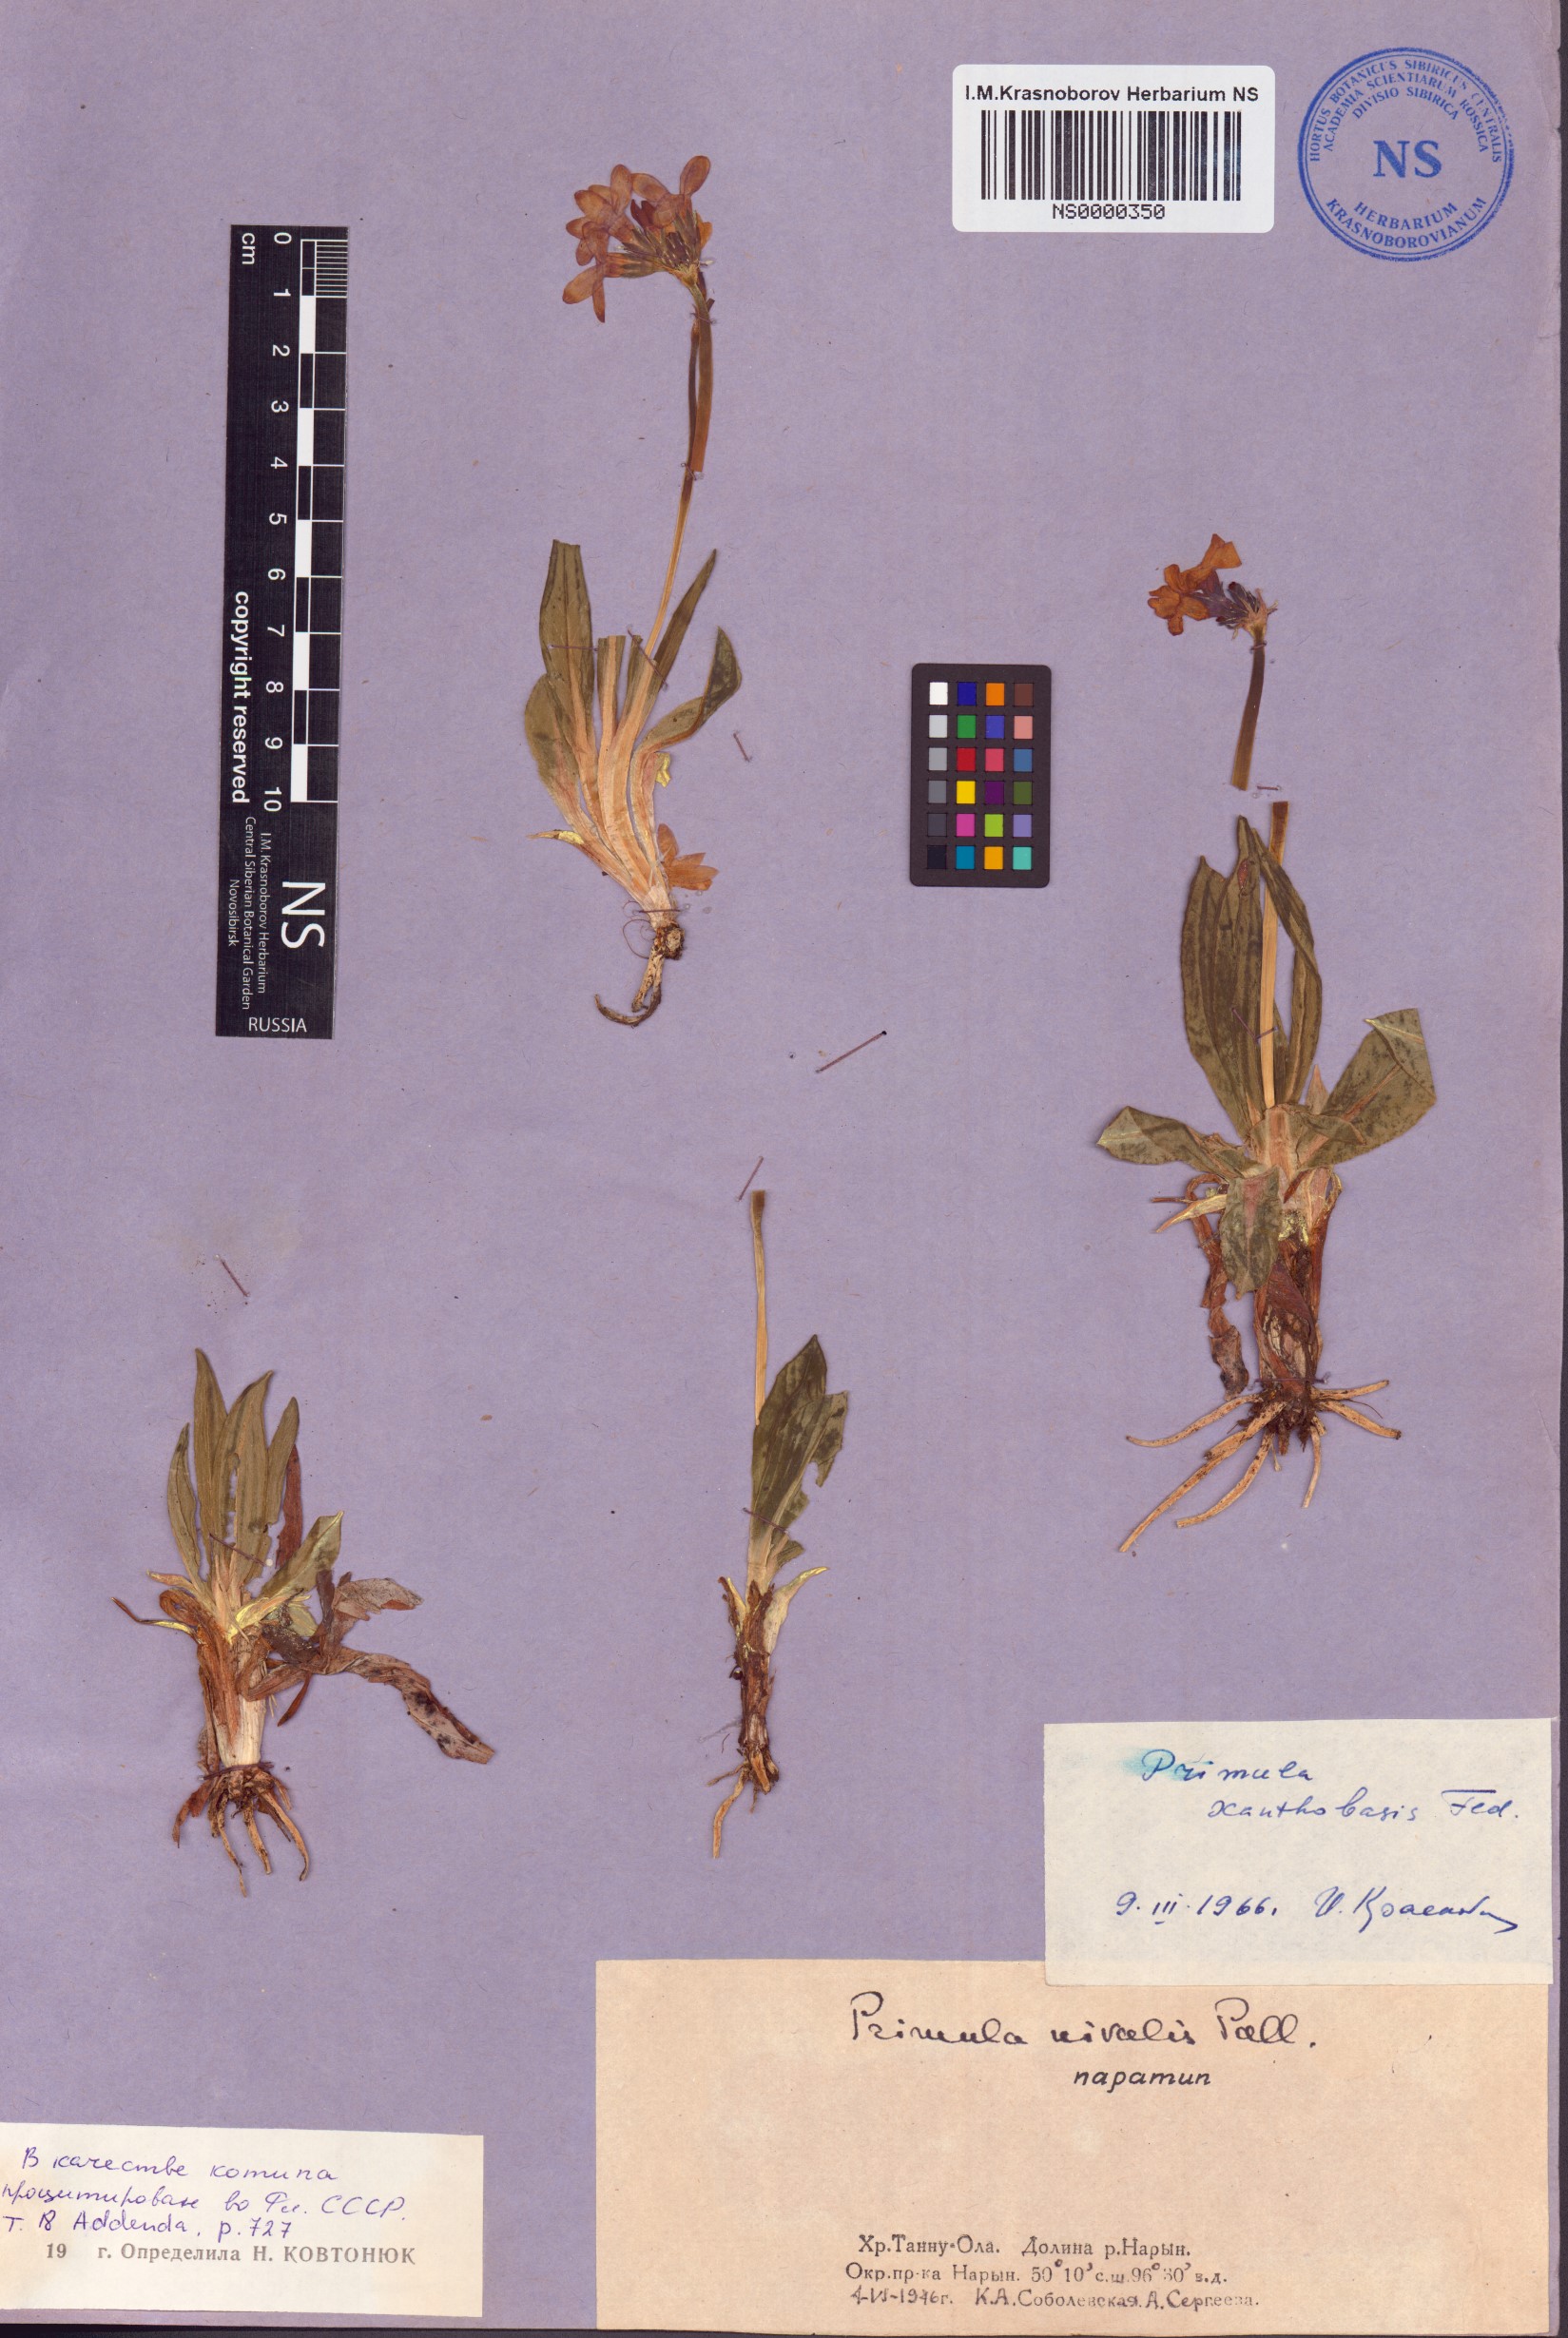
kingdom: Plantae
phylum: Tracheophyta
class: Magnoliopsida
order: Ericales
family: Primulaceae
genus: Primula
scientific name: Primula nivalis
